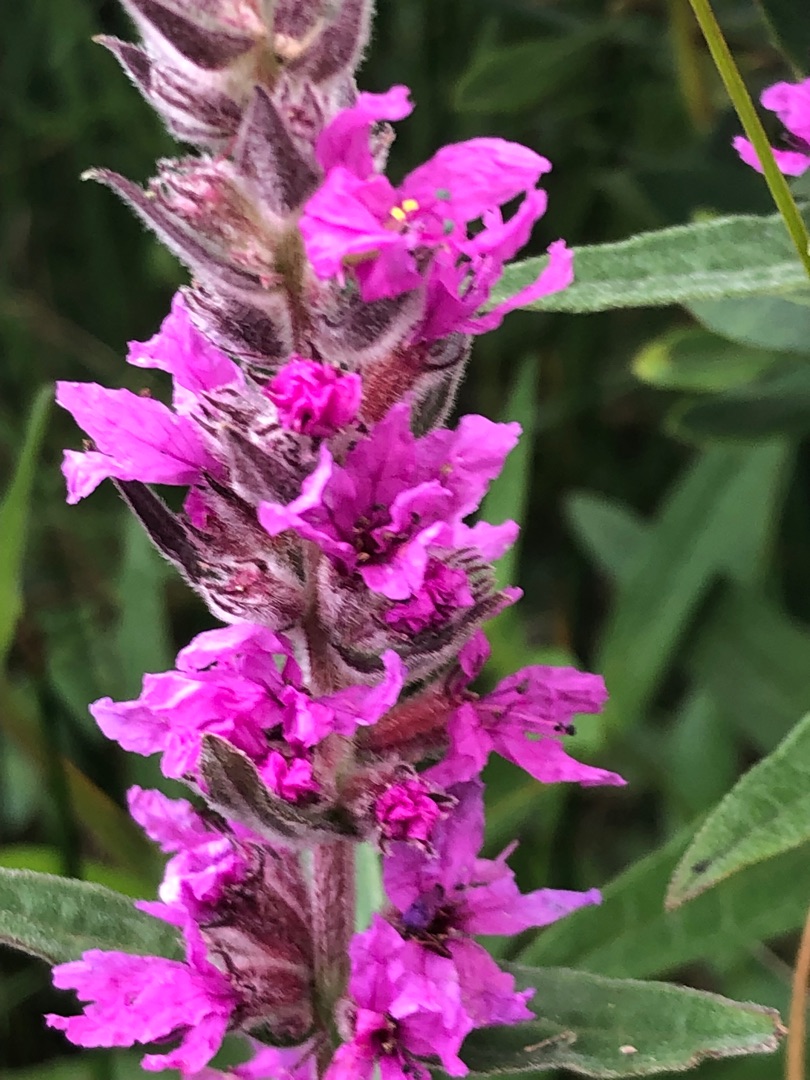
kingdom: Plantae
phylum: Tracheophyta
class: Magnoliopsida
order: Myrtales
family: Lythraceae
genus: Lythrum
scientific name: Lythrum salicaria
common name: Kattehale
